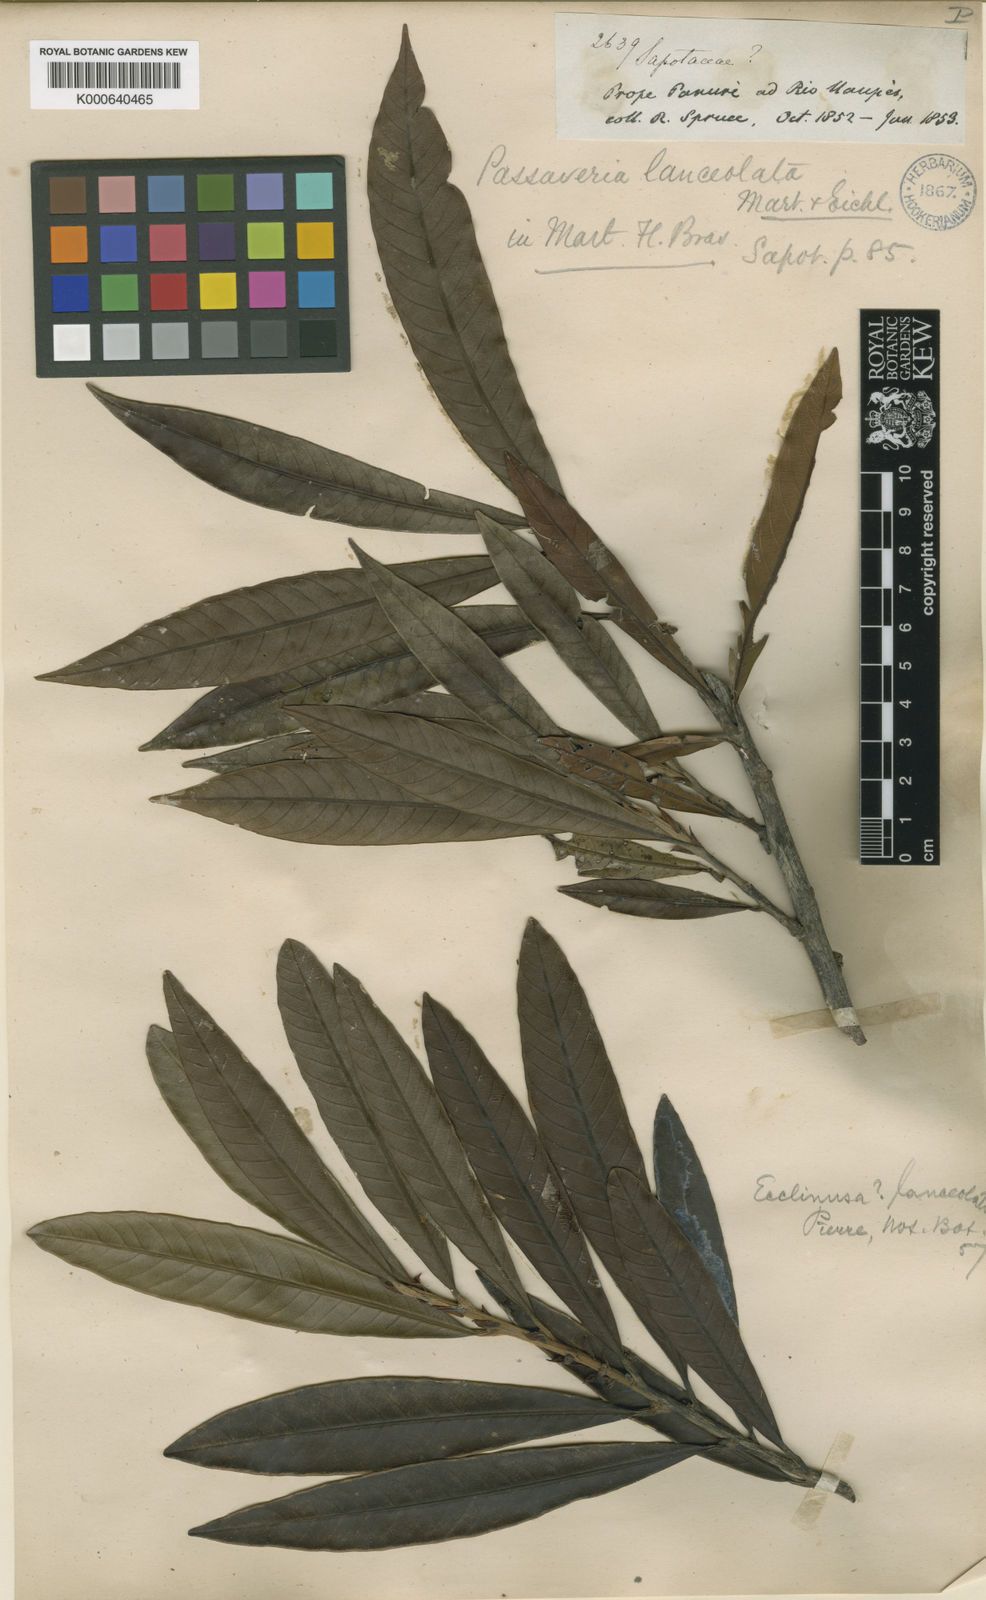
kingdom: Plantae
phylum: Tracheophyta
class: Magnoliopsida
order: Ericales
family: Sapotaceae
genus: Ecclinusa
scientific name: Ecclinusa lanceolata
